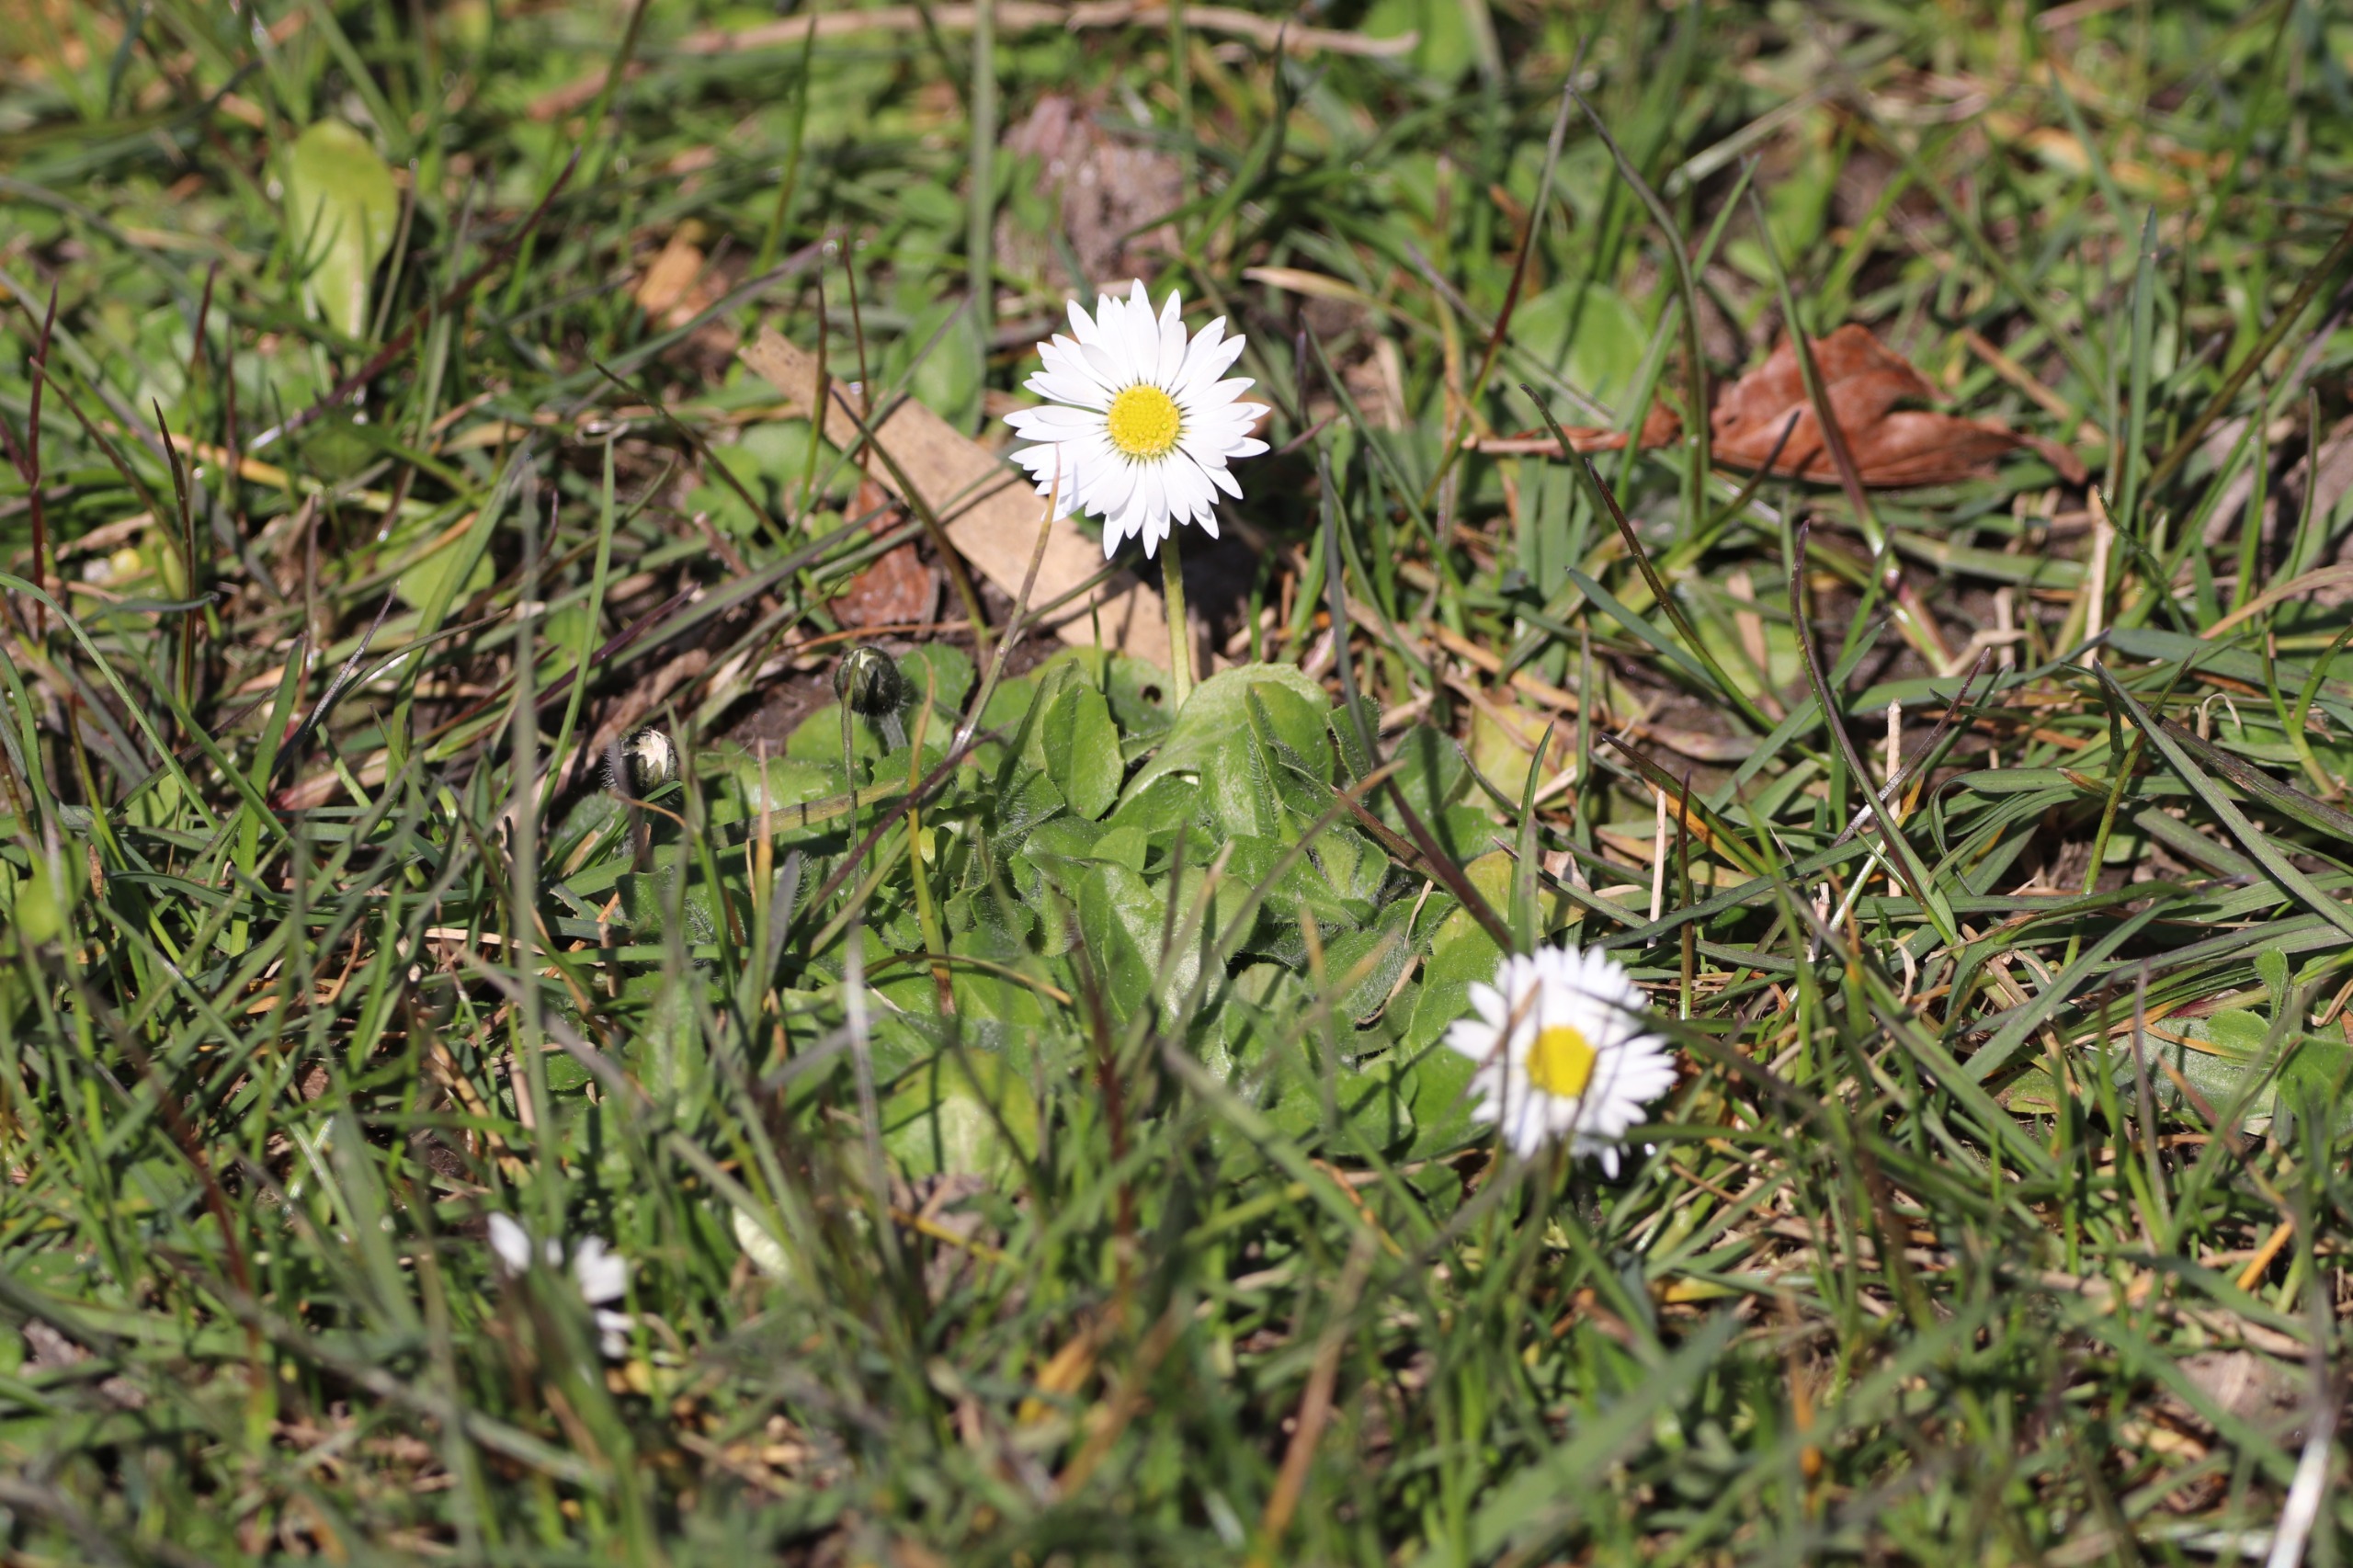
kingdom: Plantae
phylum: Tracheophyta
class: Magnoliopsida
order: Asterales
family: Asteraceae
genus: Bellis
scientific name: Bellis perennis
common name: Tusindfryd
